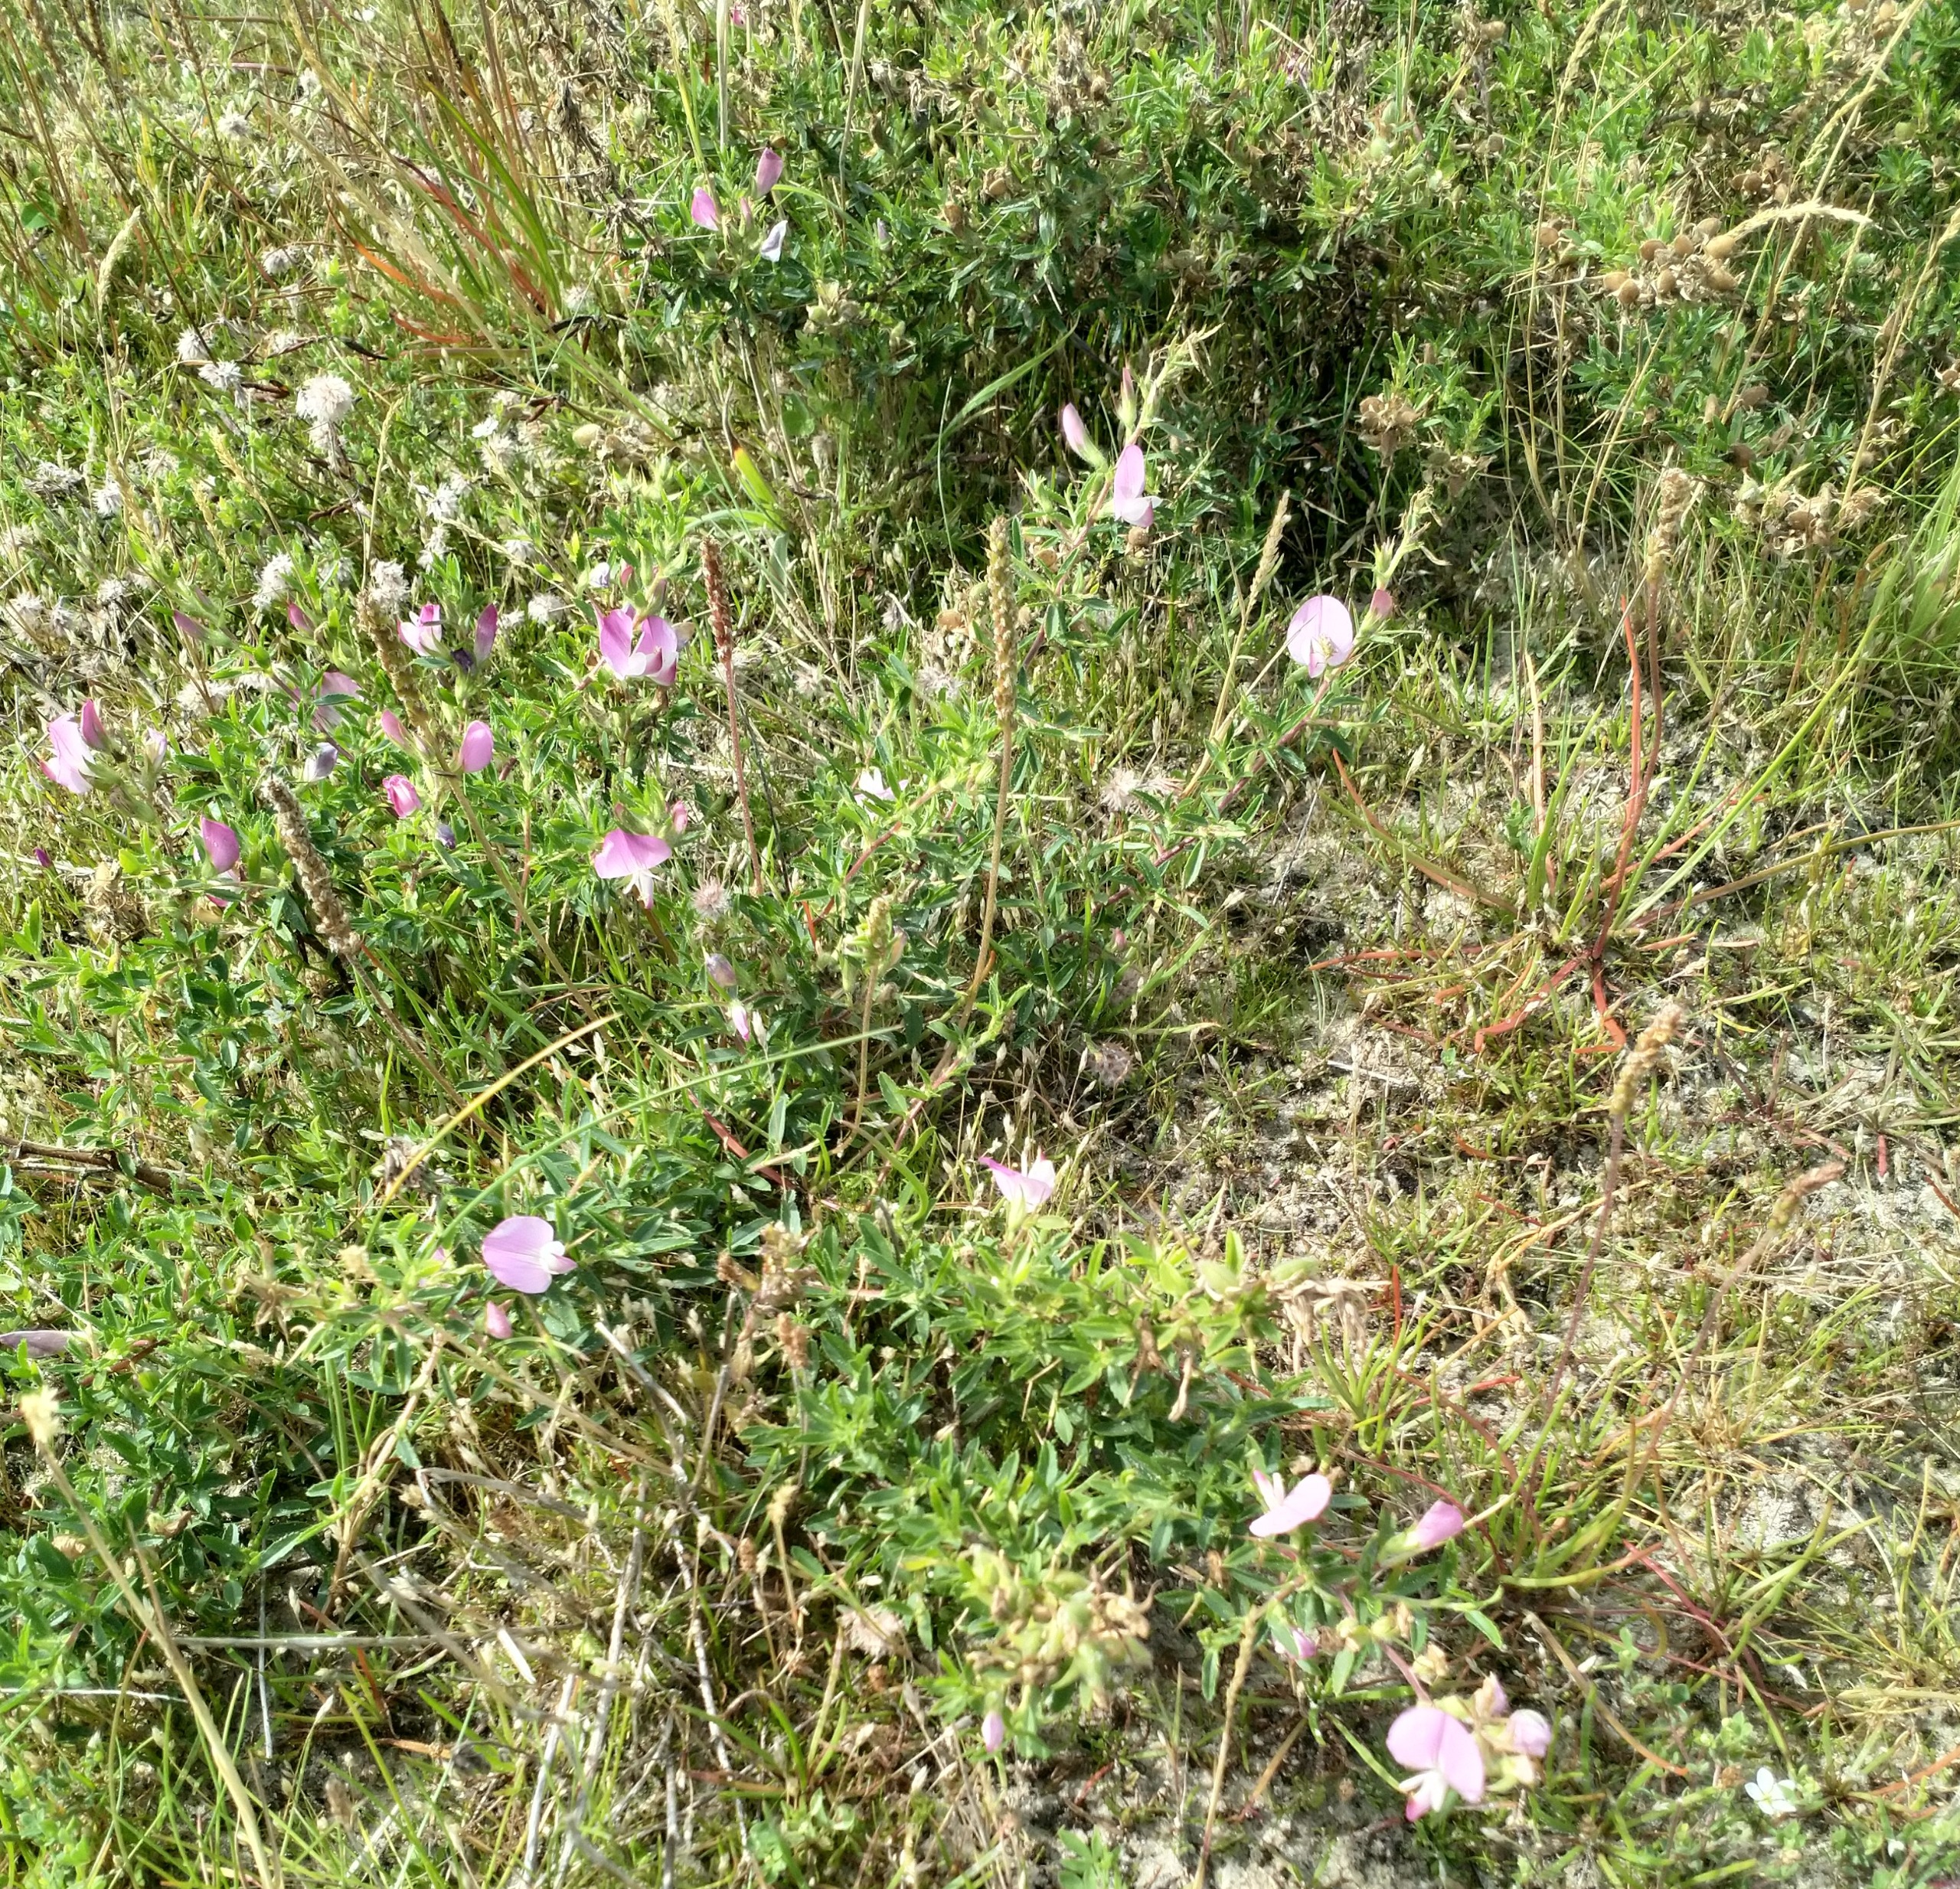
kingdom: Plantae
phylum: Tracheophyta
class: Magnoliopsida
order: Fabales
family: Fabaceae
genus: Ononis
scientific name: Ononis spinosa
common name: Strand-krageklo
